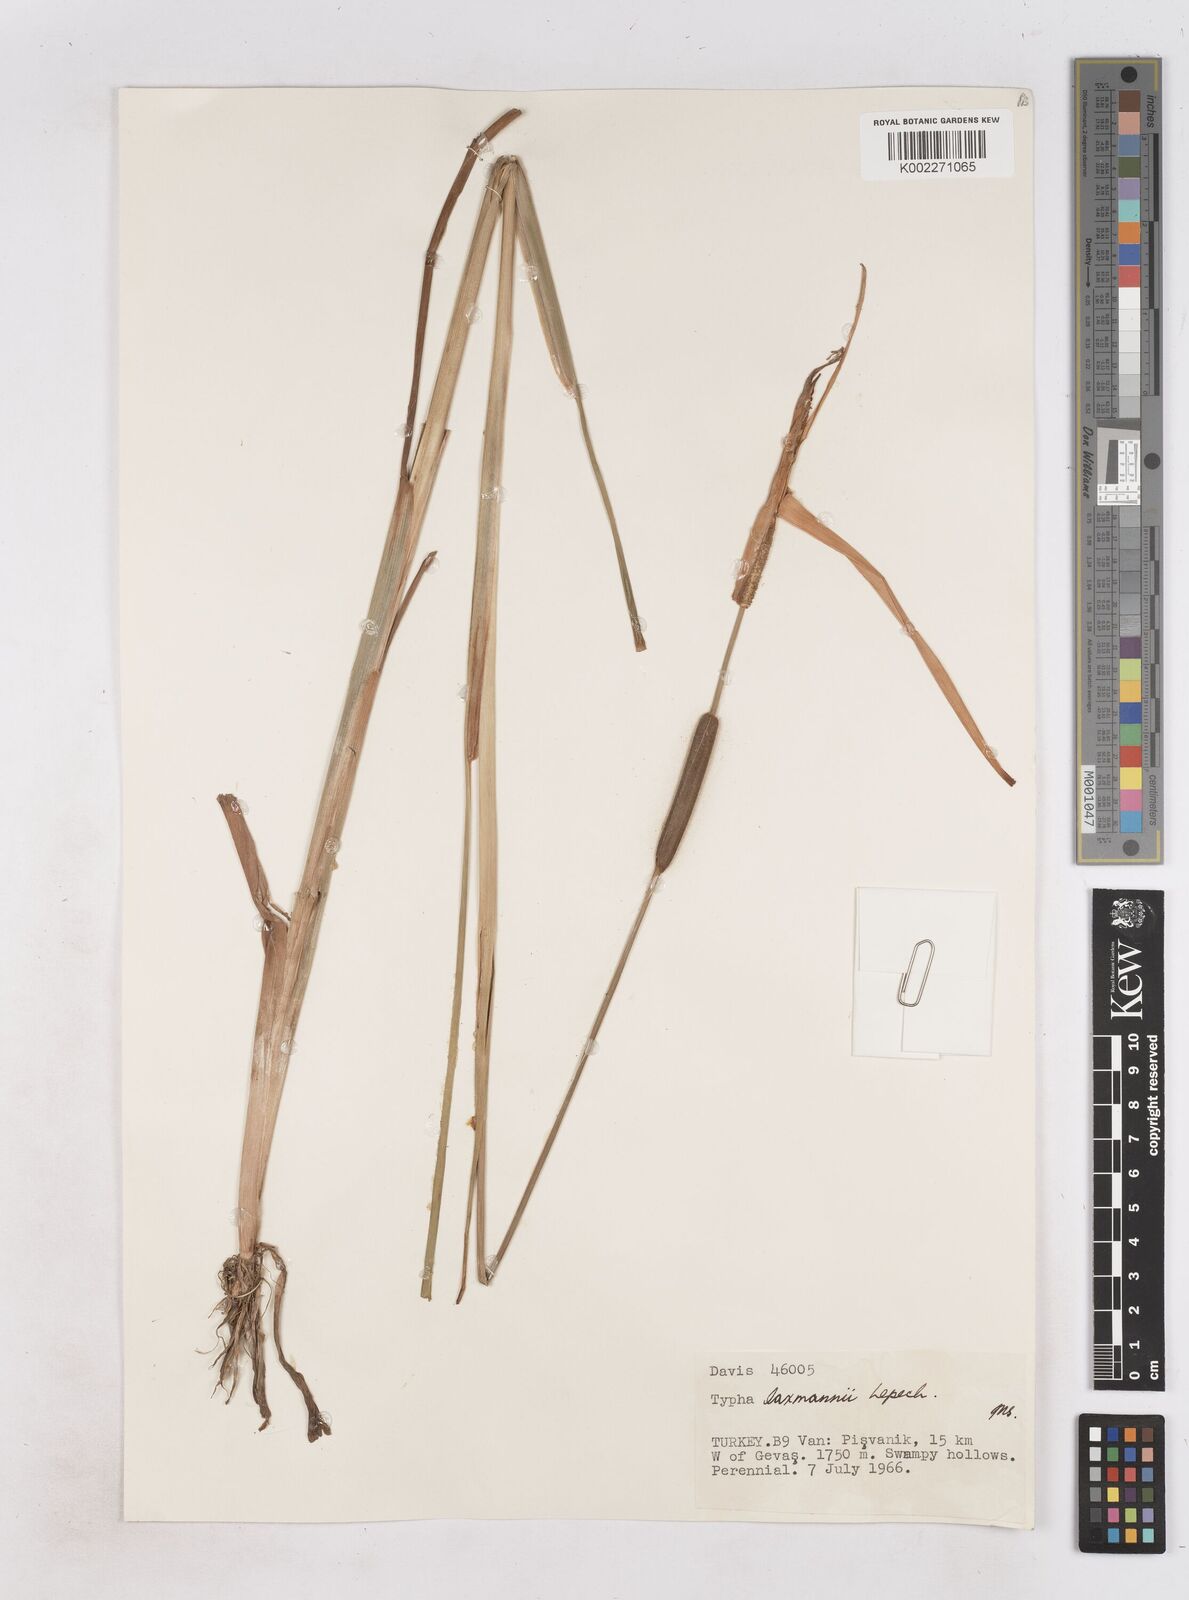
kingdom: Plantae
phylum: Tracheophyta
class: Liliopsida
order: Poales
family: Typhaceae
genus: Typha
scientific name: Typha laxmannii
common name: Laxman’s bulrush
